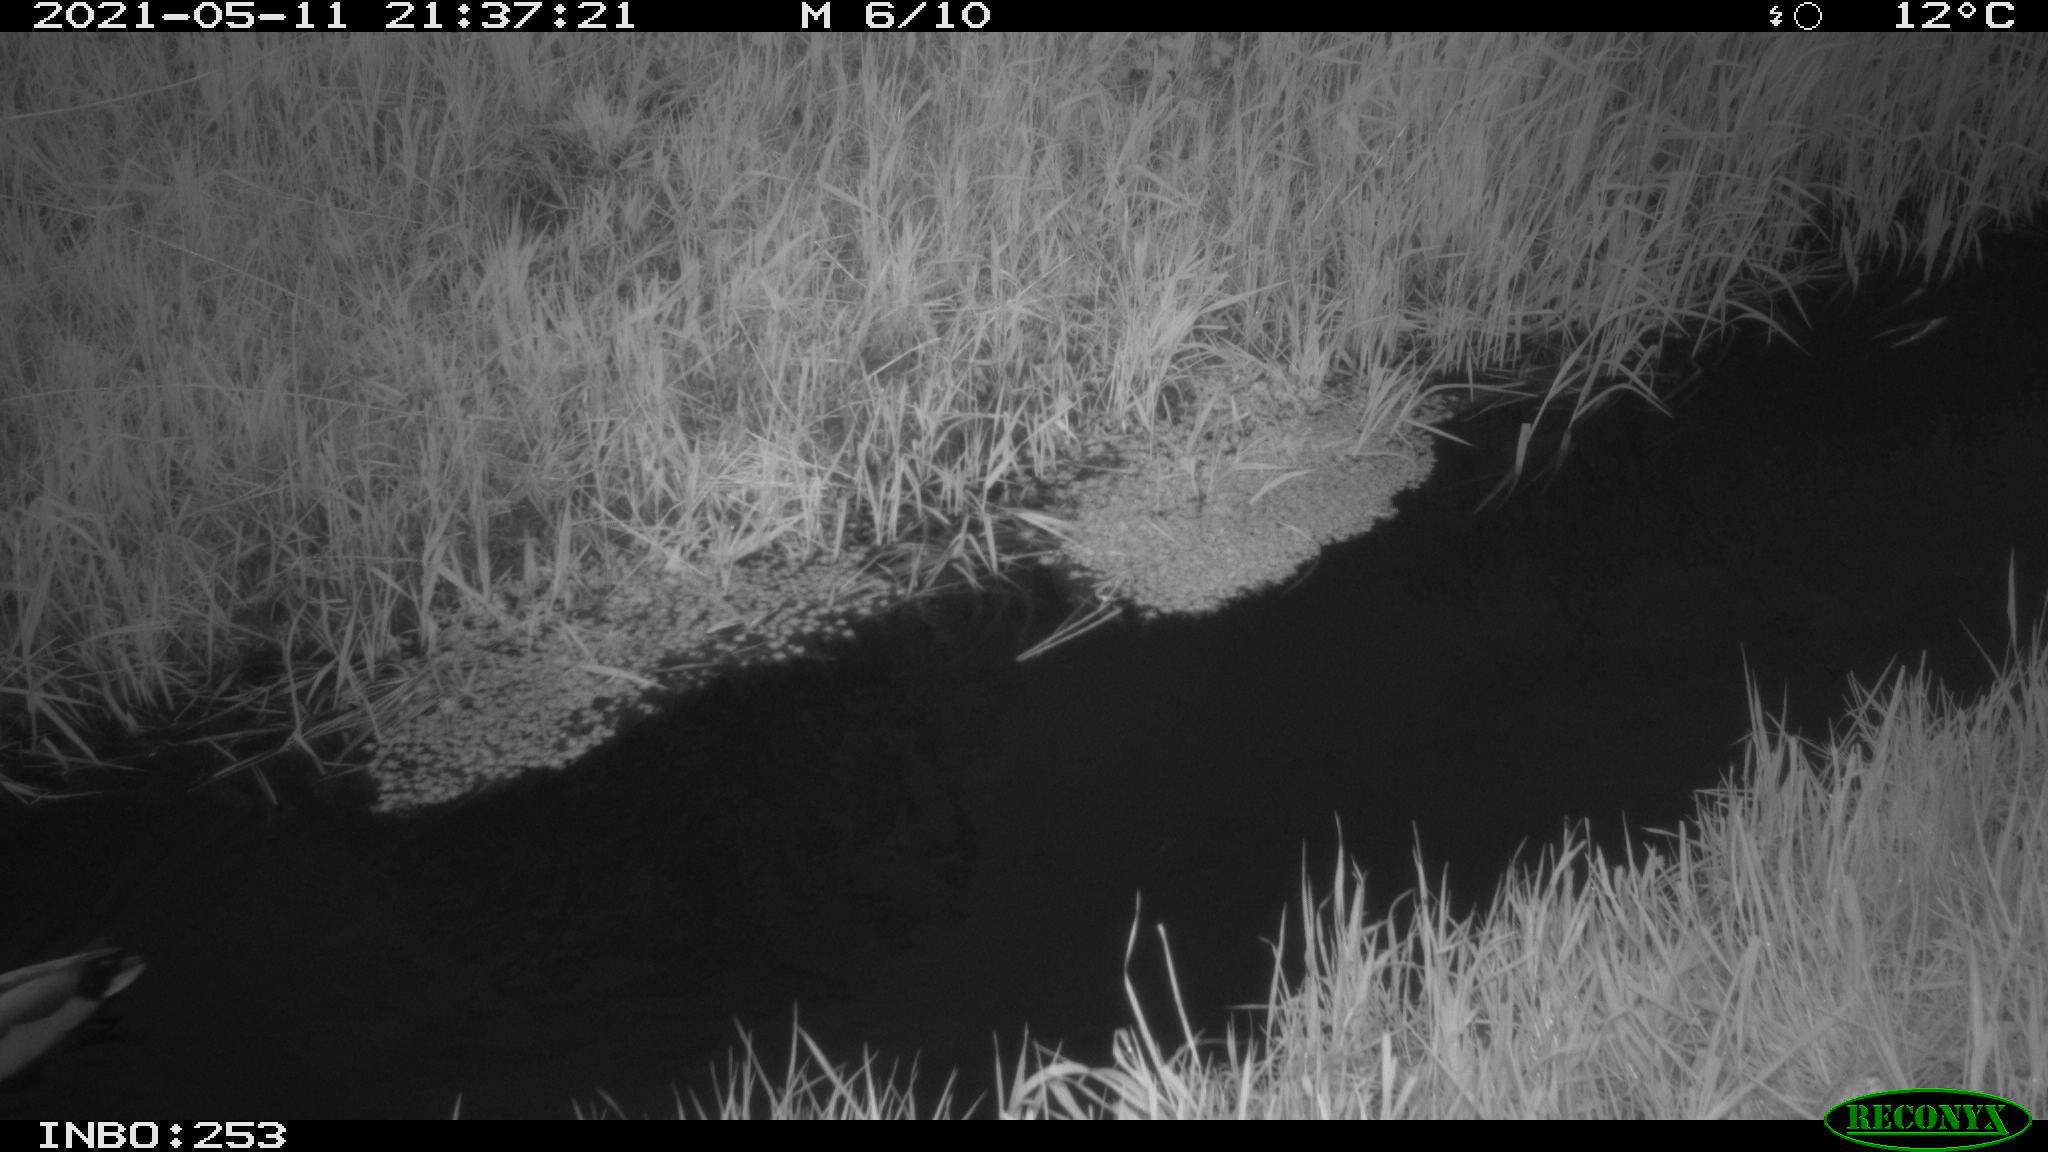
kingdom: Animalia
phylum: Chordata
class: Aves
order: Anseriformes
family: Anatidae
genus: Anas
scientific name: Anas platyrhynchos
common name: Mallard
